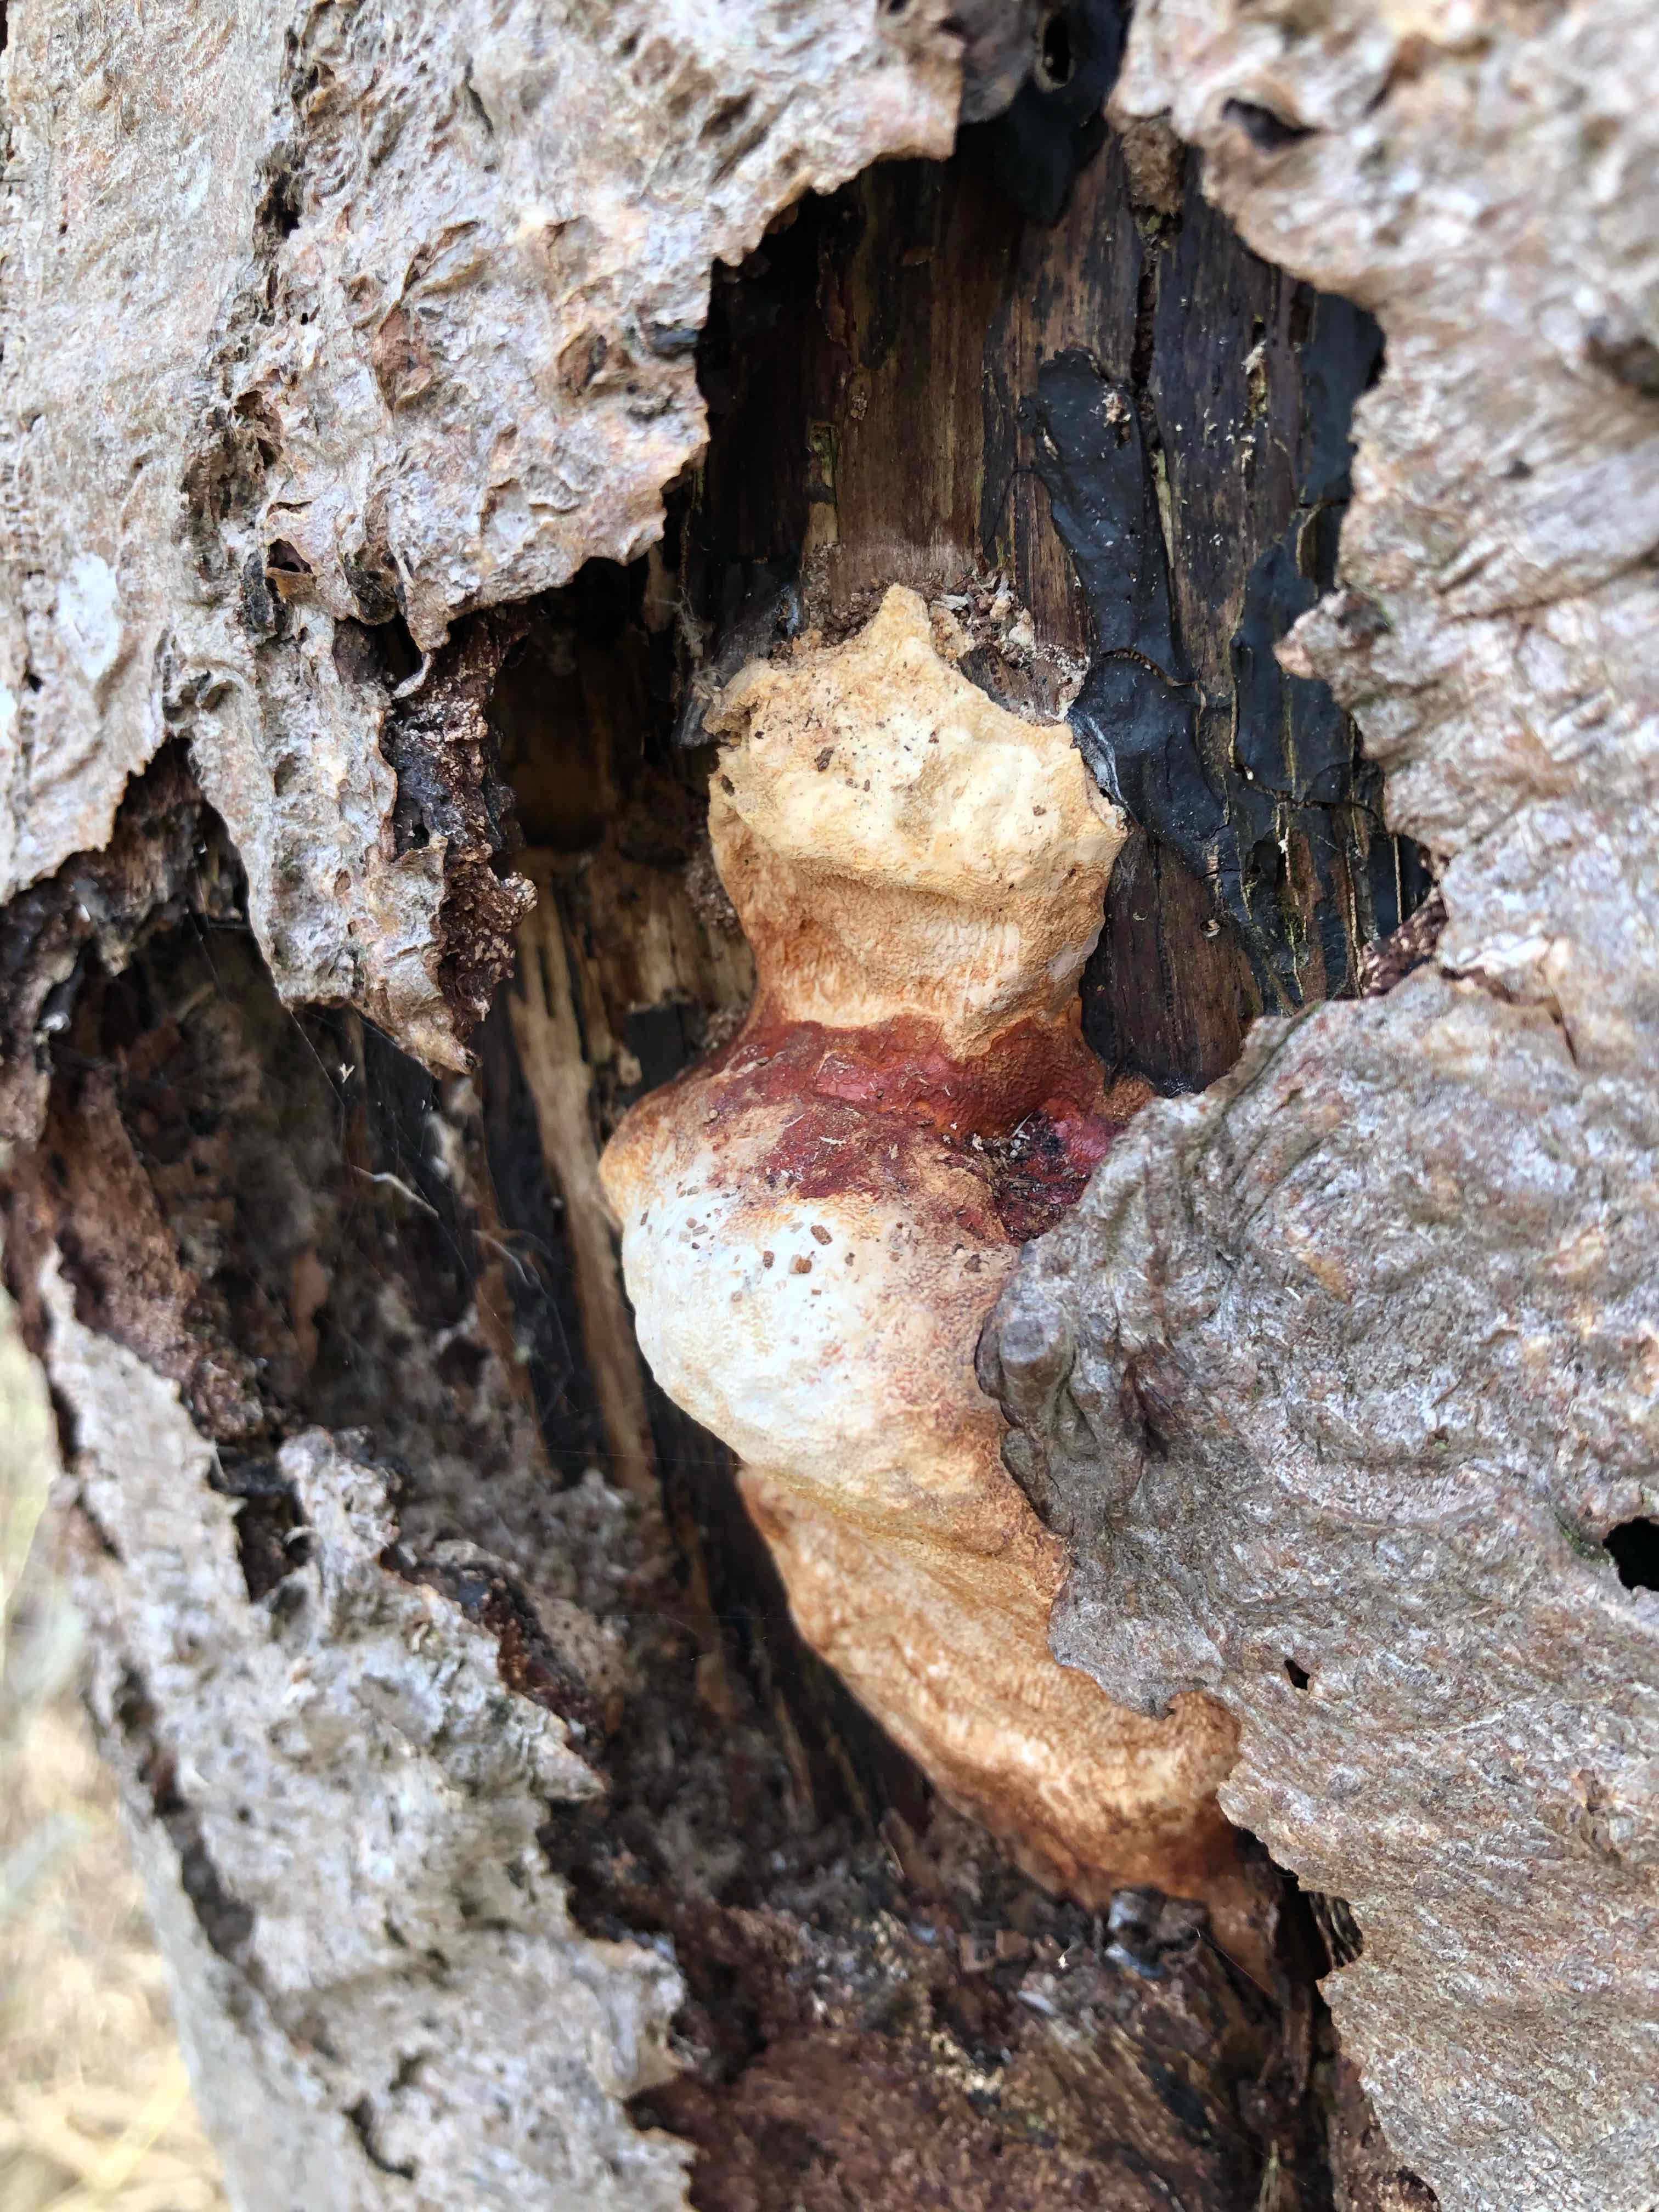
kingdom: Fungi
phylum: Basidiomycota
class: Agaricomycetes
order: Polyporales
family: Fomitopsidaceae
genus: Fomitopsis
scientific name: Fomitopsis pinicola
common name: randbæltet hovporesvamp
